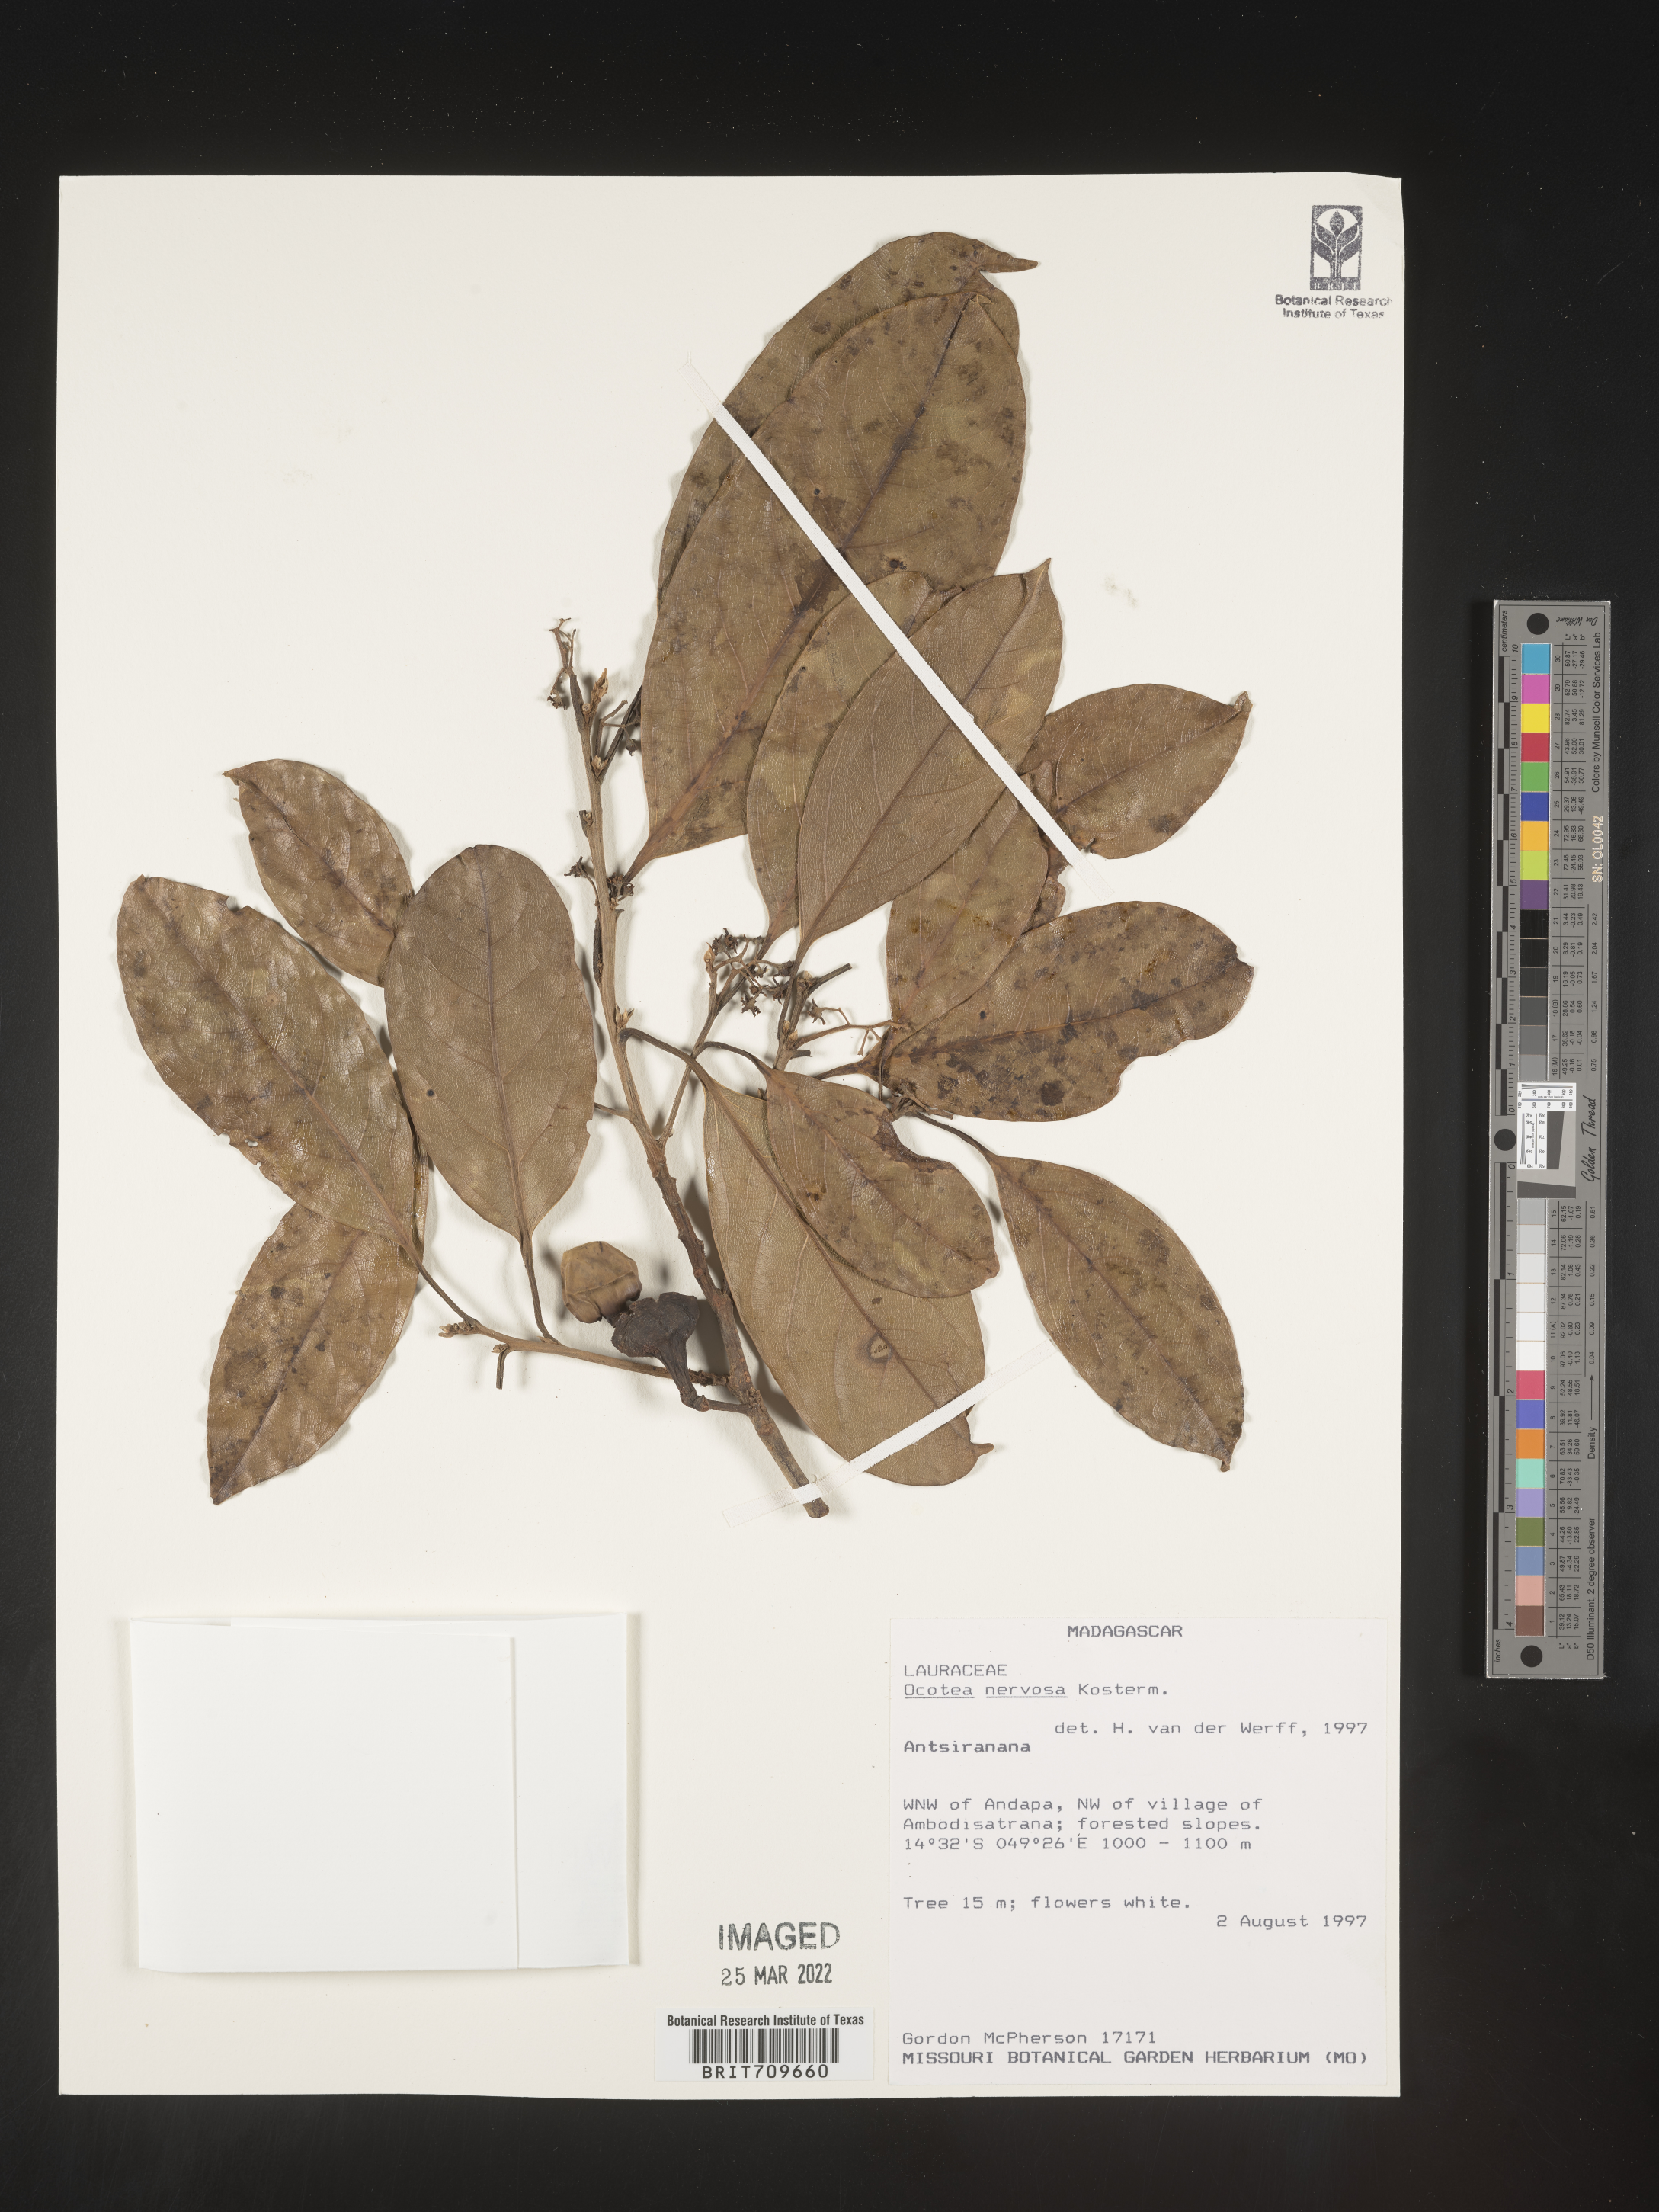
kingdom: Plantae
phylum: Tracheophyta
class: Magnoliopsida
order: Laurales
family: Lauraceae
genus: Ocotea
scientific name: Ocotea
